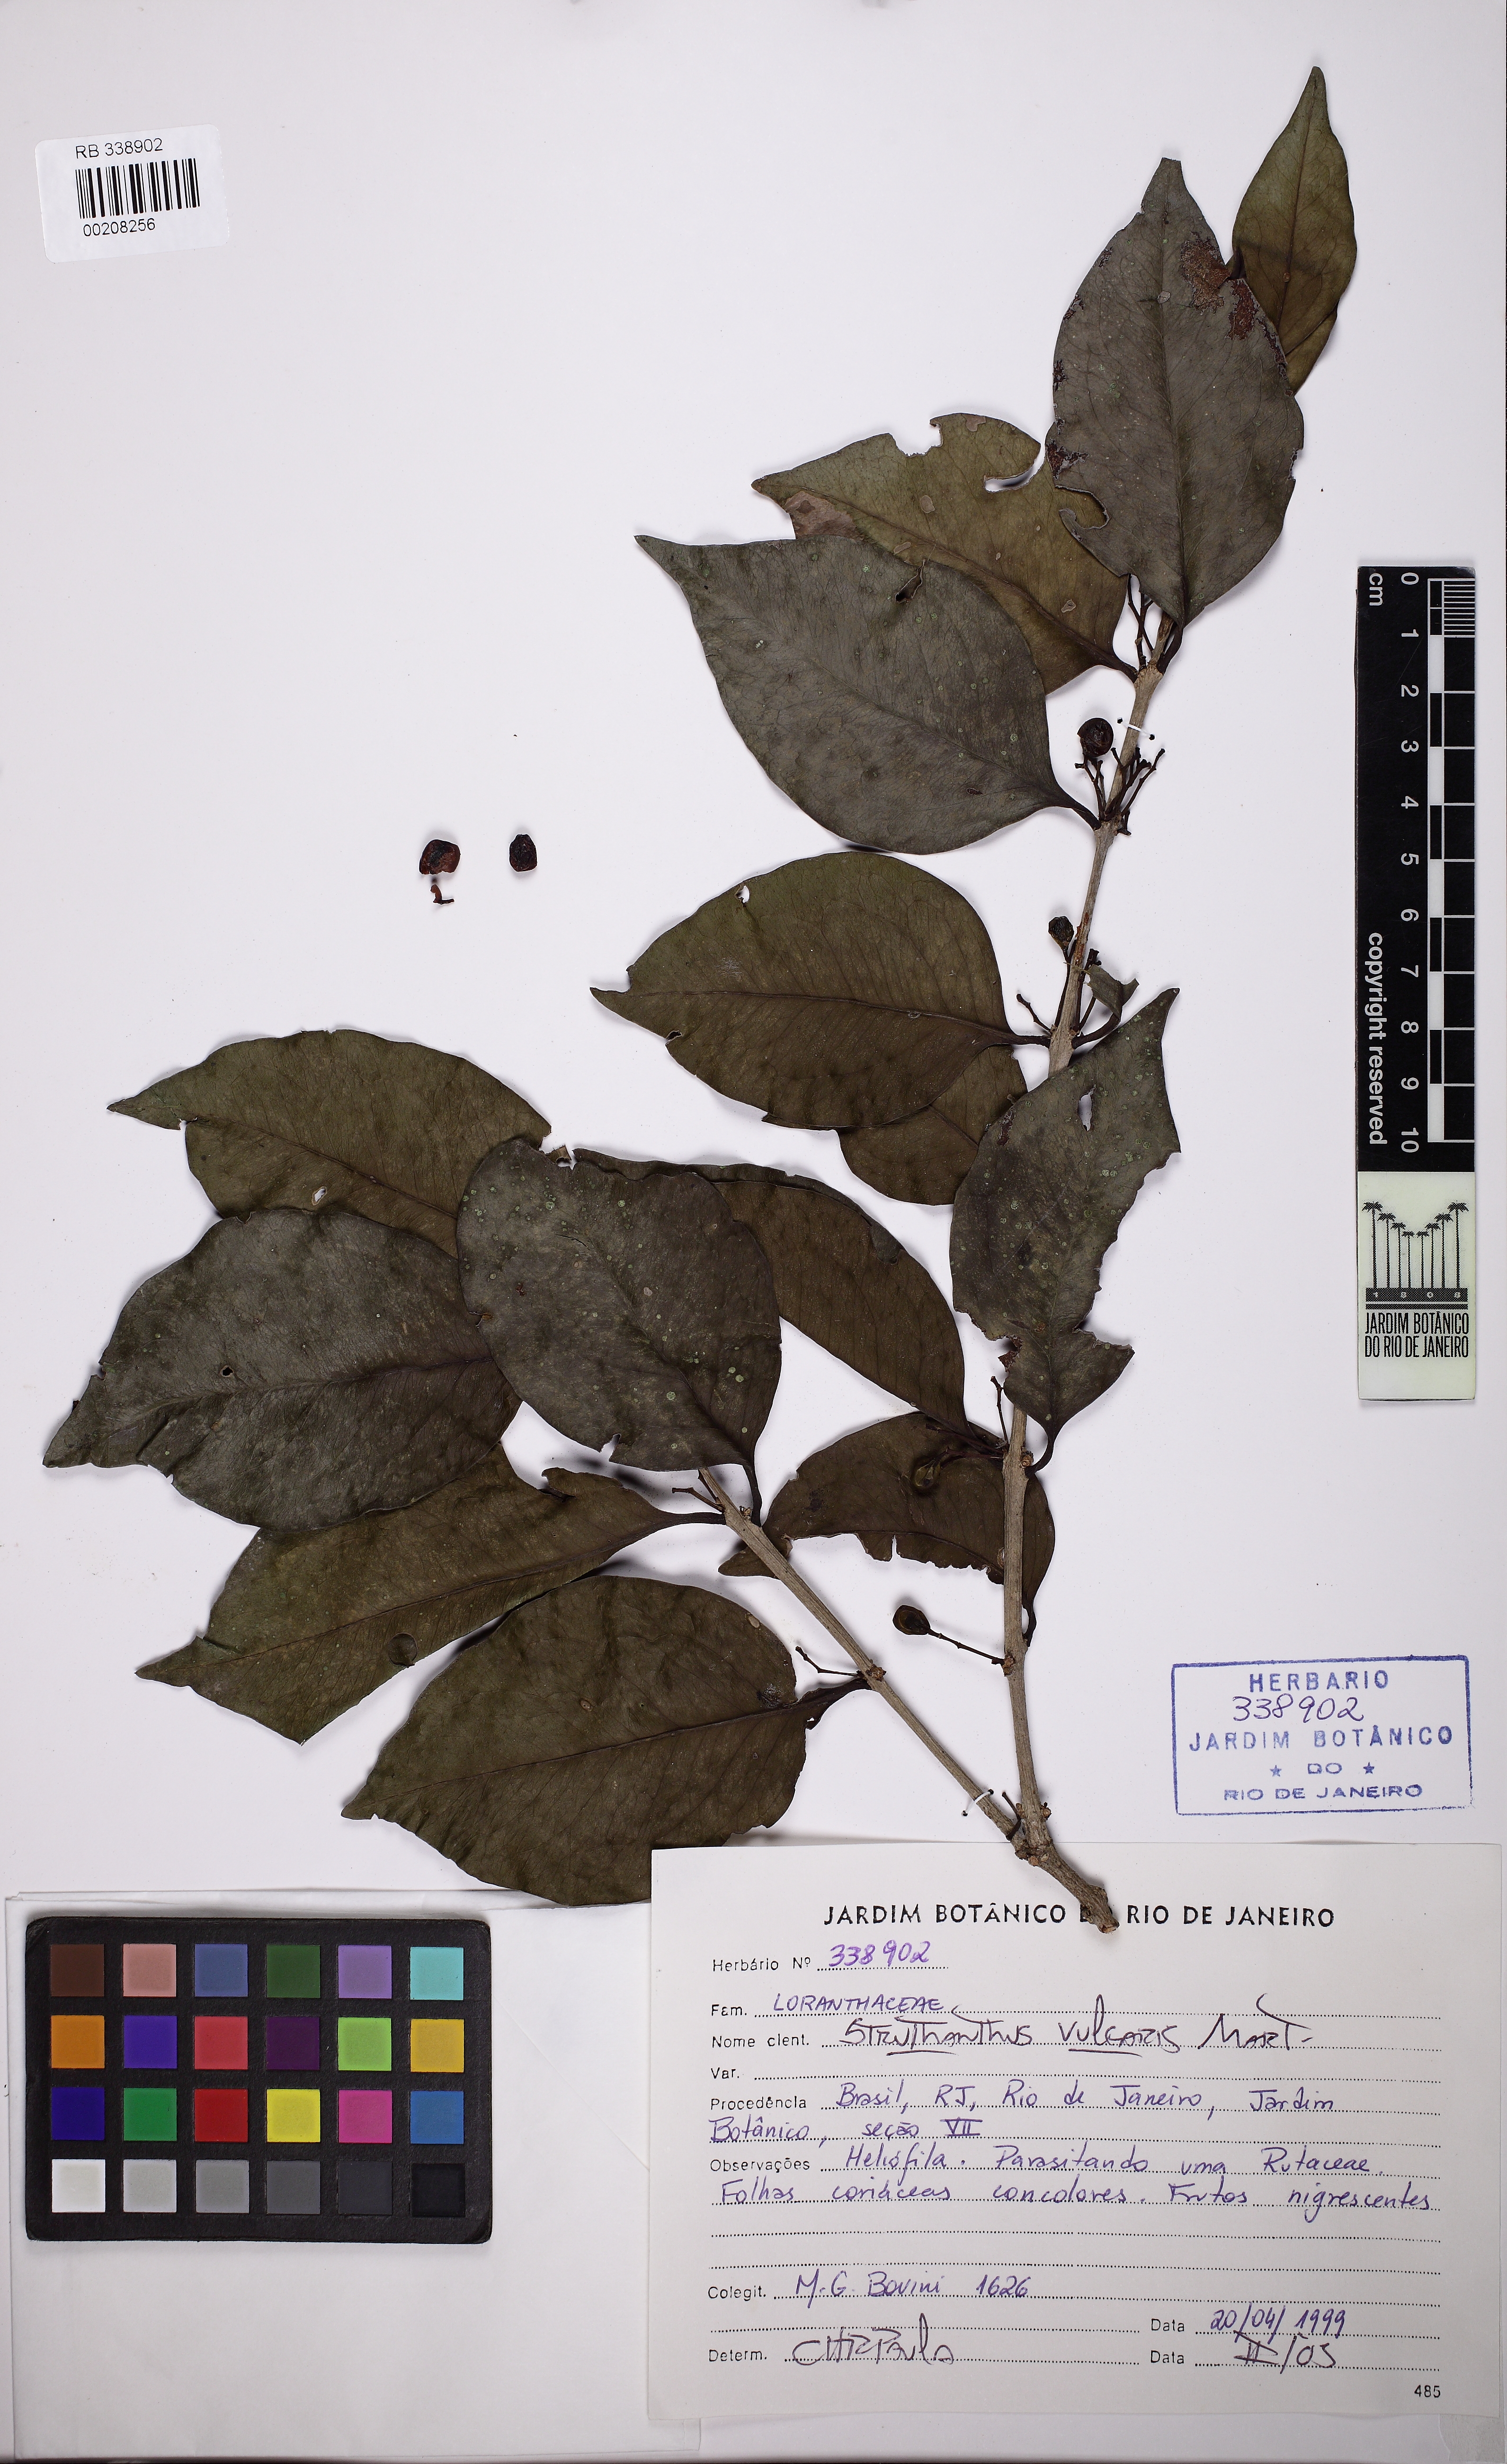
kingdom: Plantae
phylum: Tracheophyta
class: Magnoliopsida
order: Santalales
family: Loranthaceae
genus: Struthanthus
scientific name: Struthanthus marginatus
